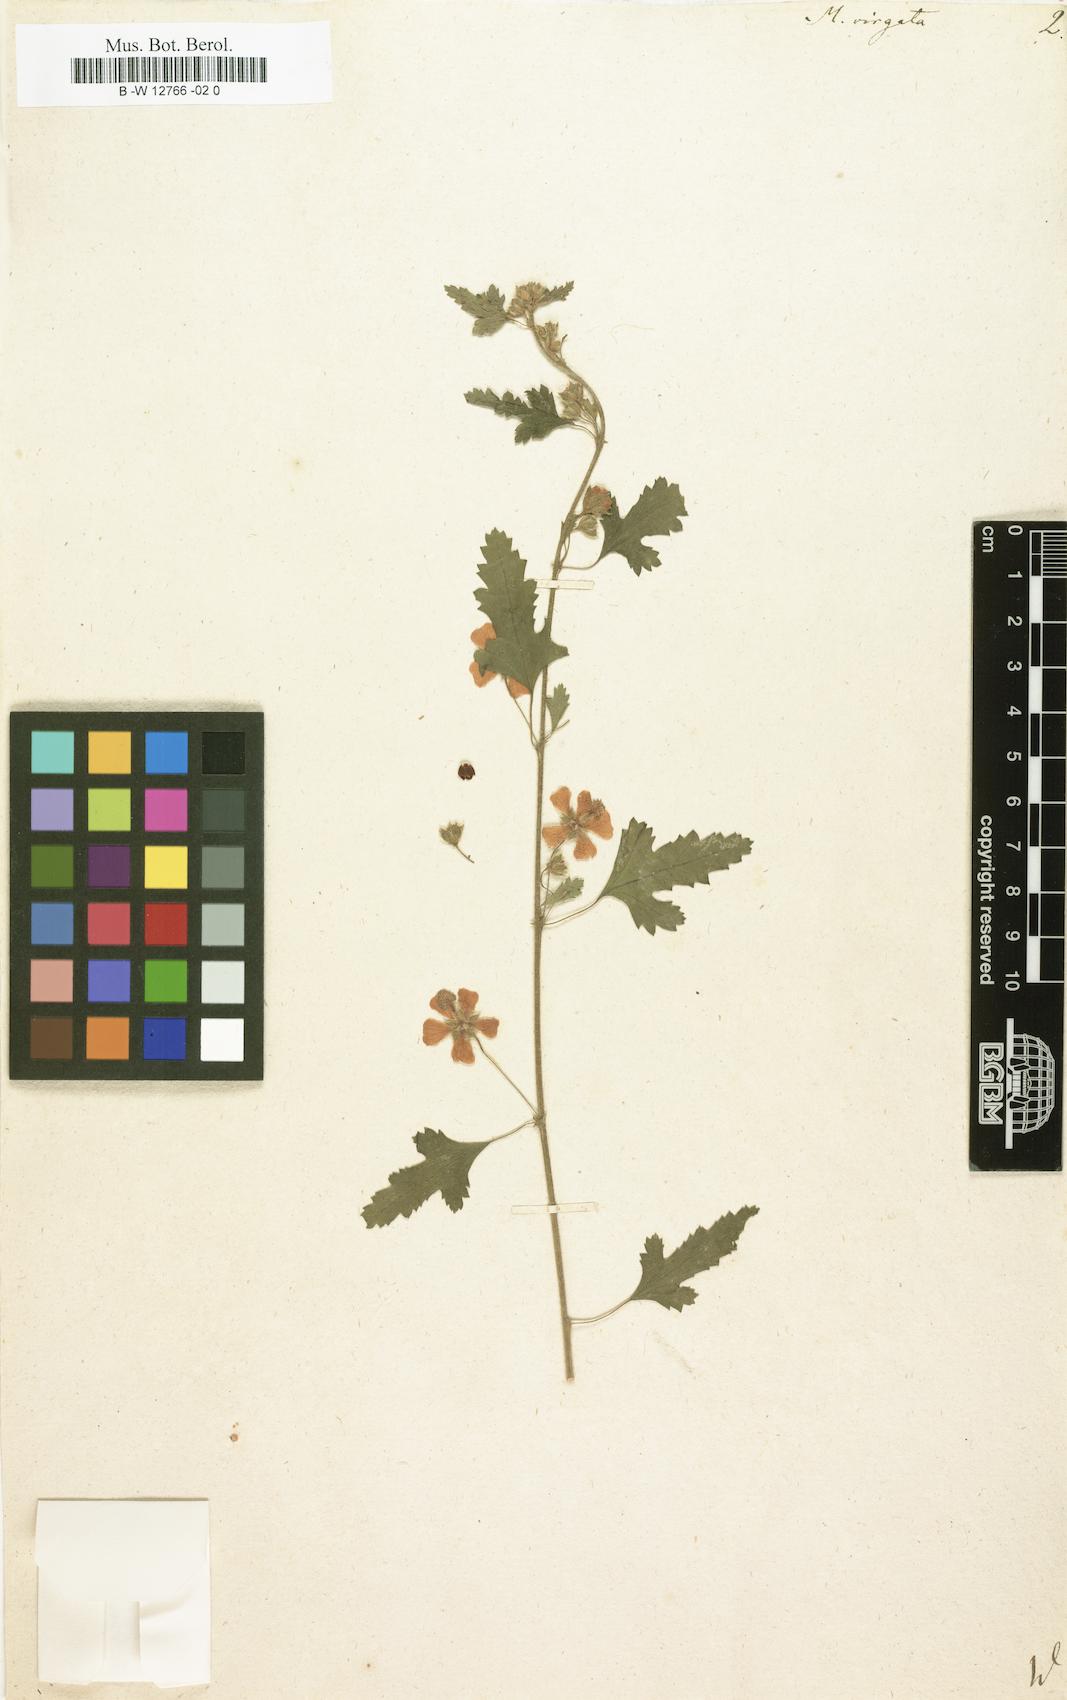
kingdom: Plantae
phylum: Tracheophyta
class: Magnoliopsida
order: Malvales
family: Malvaceae
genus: Anisodontea
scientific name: Anisodontea
